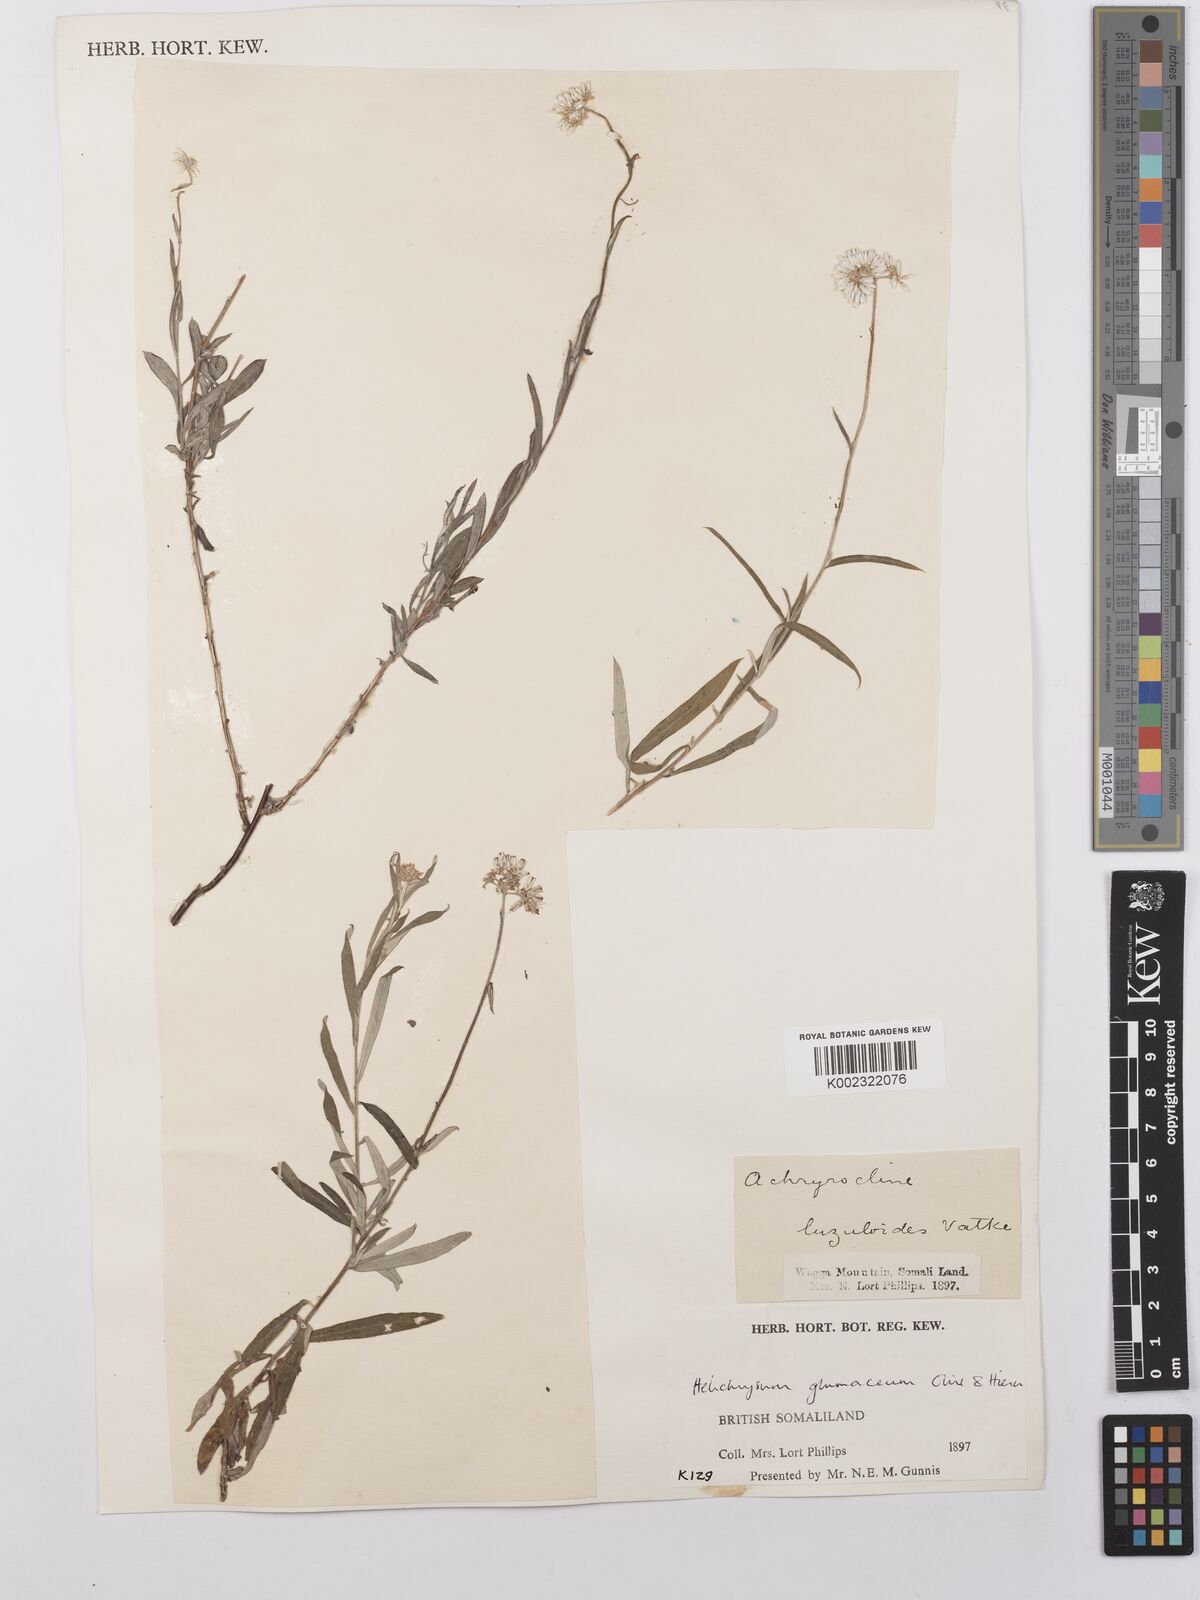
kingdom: Plantae
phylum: Tracheophyta
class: Magnoliopsida
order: Asterales
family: Asteraceae
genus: Helichrysum
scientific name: Helichrysum glumaceum
